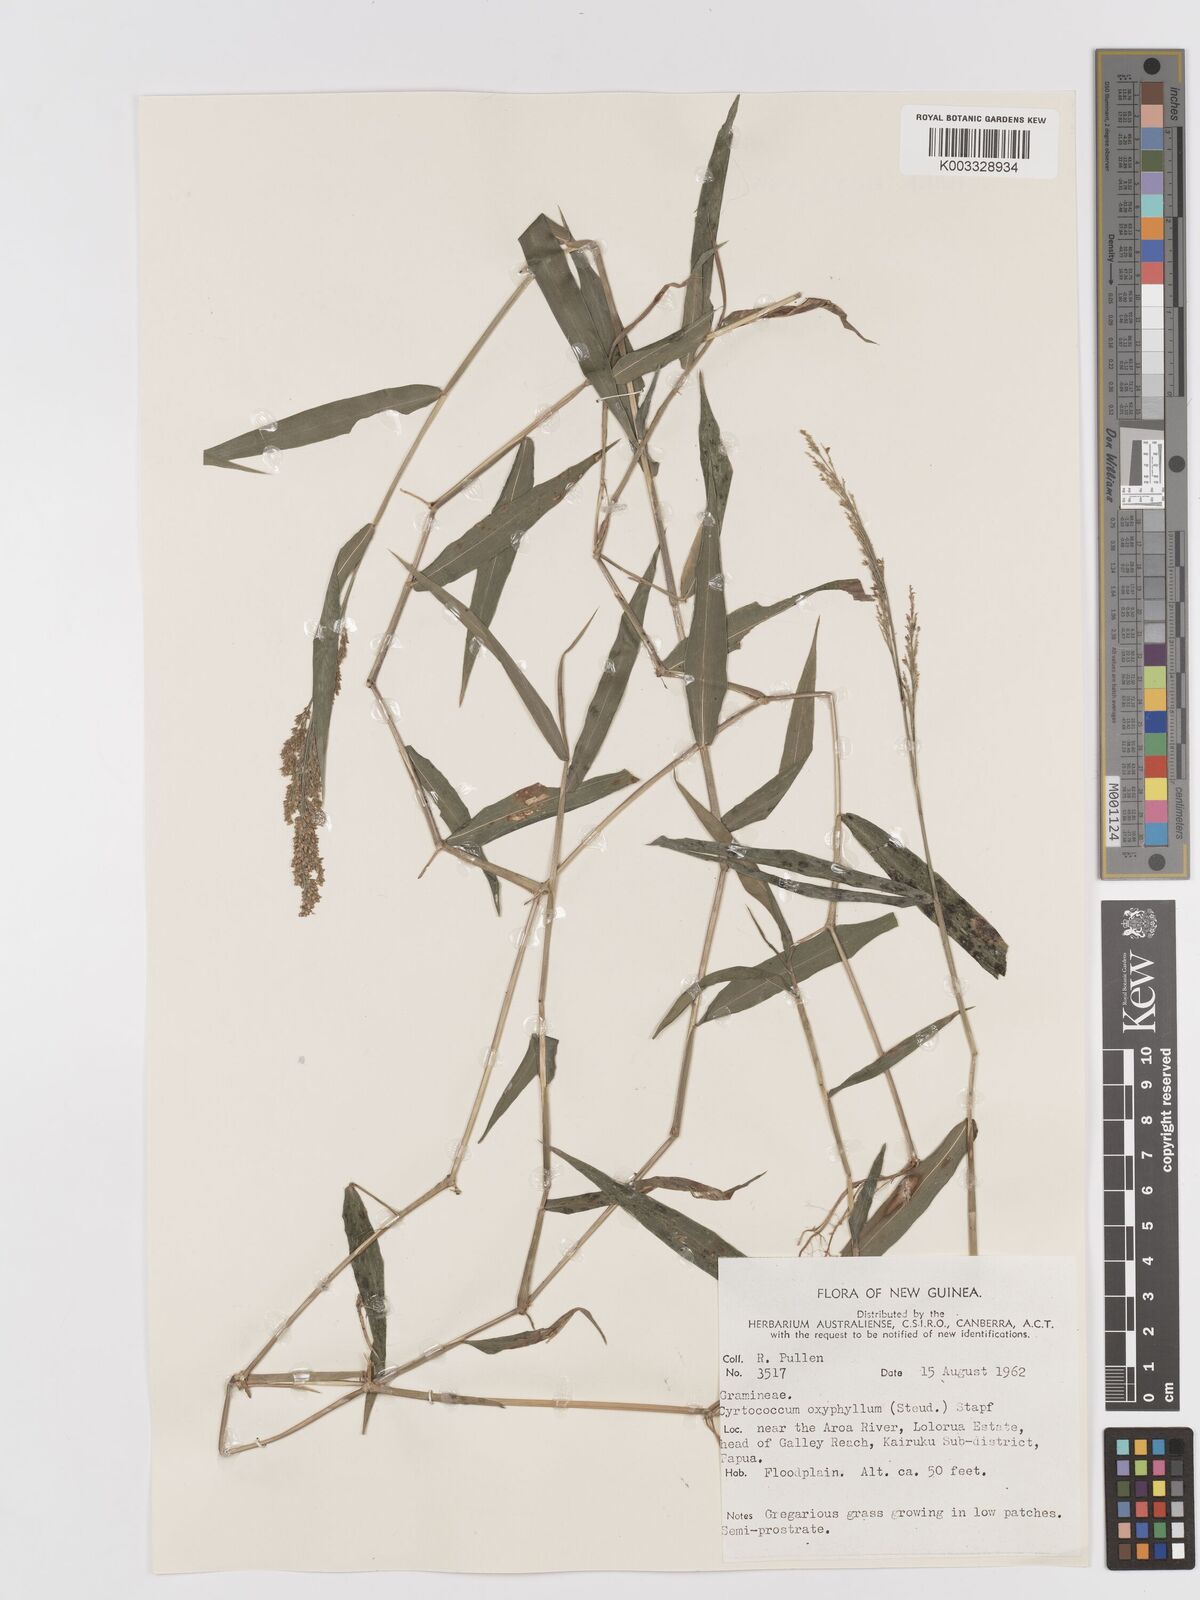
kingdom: Plantae
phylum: Tracheophyta
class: Liliopsida
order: Poales
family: Poaceae
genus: Cyrtococcum
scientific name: Cyrtococcum oxyphyllum
